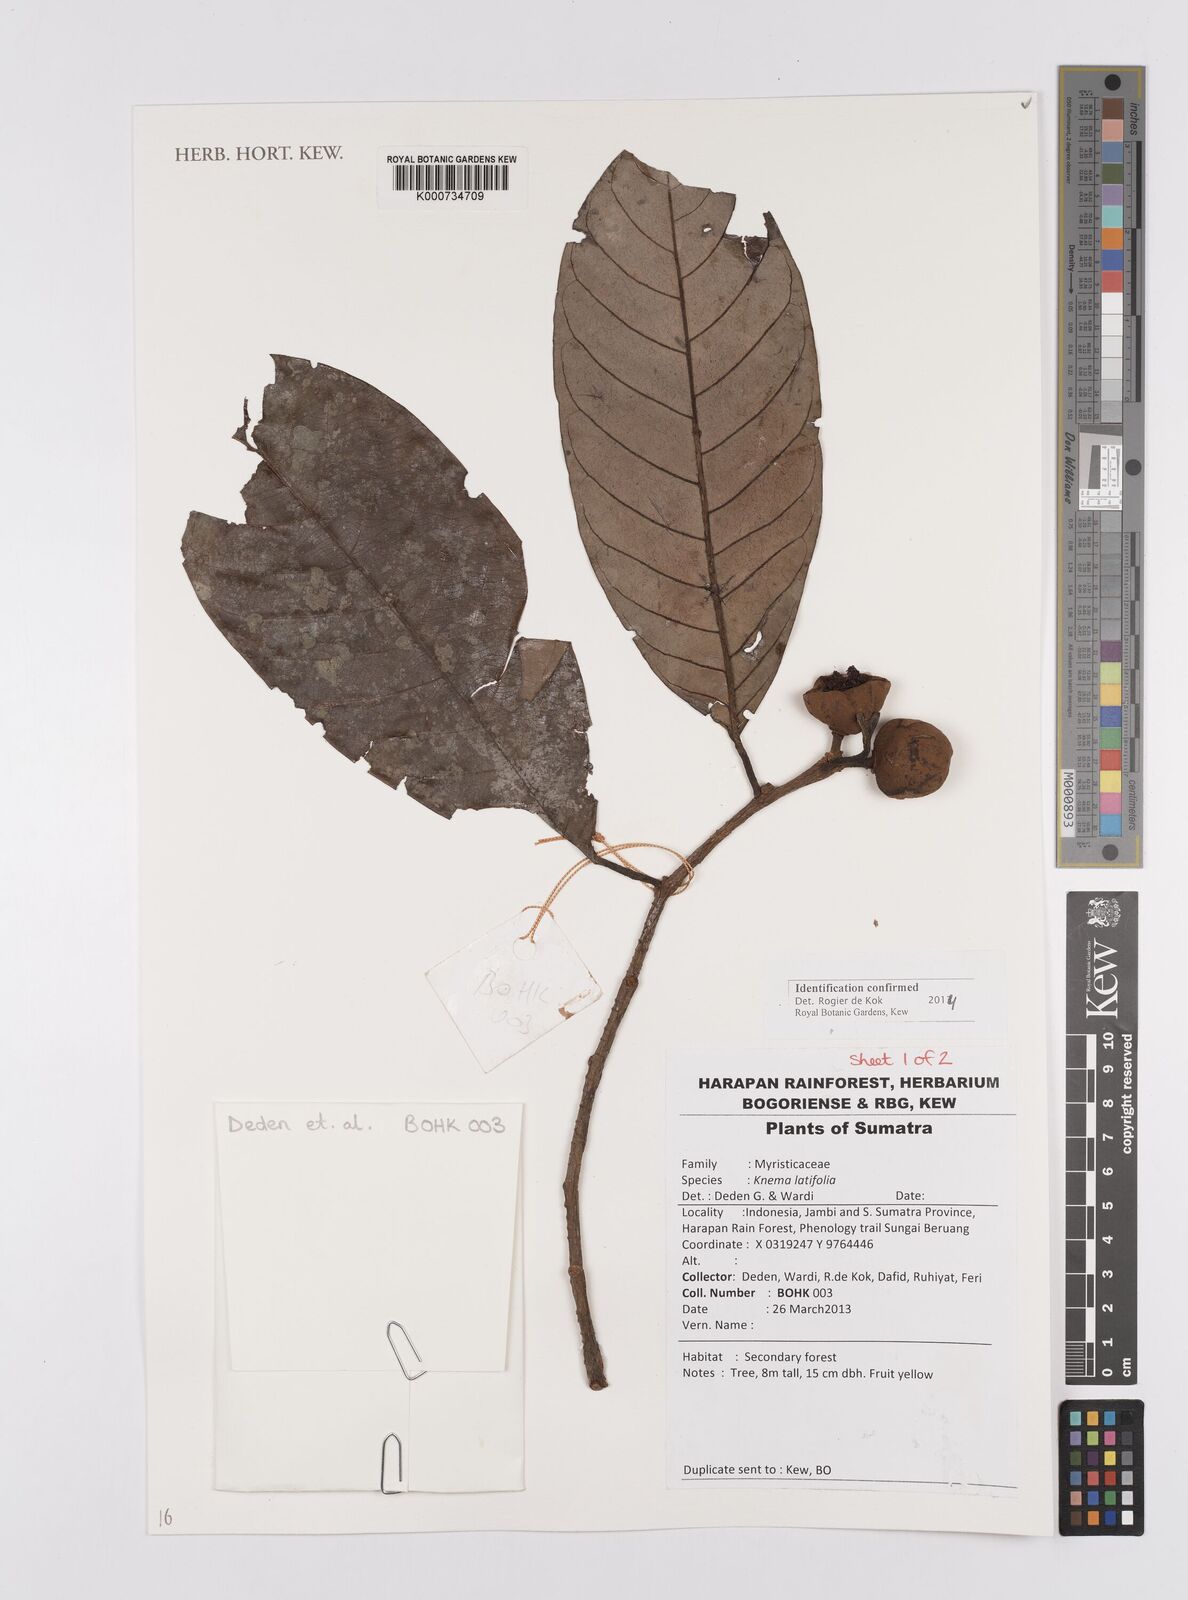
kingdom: Plantae
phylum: Tracheophyta
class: Magnoliopsida
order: Magnoliales
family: Myristicaceae
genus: Knema
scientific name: Knema latifolia
